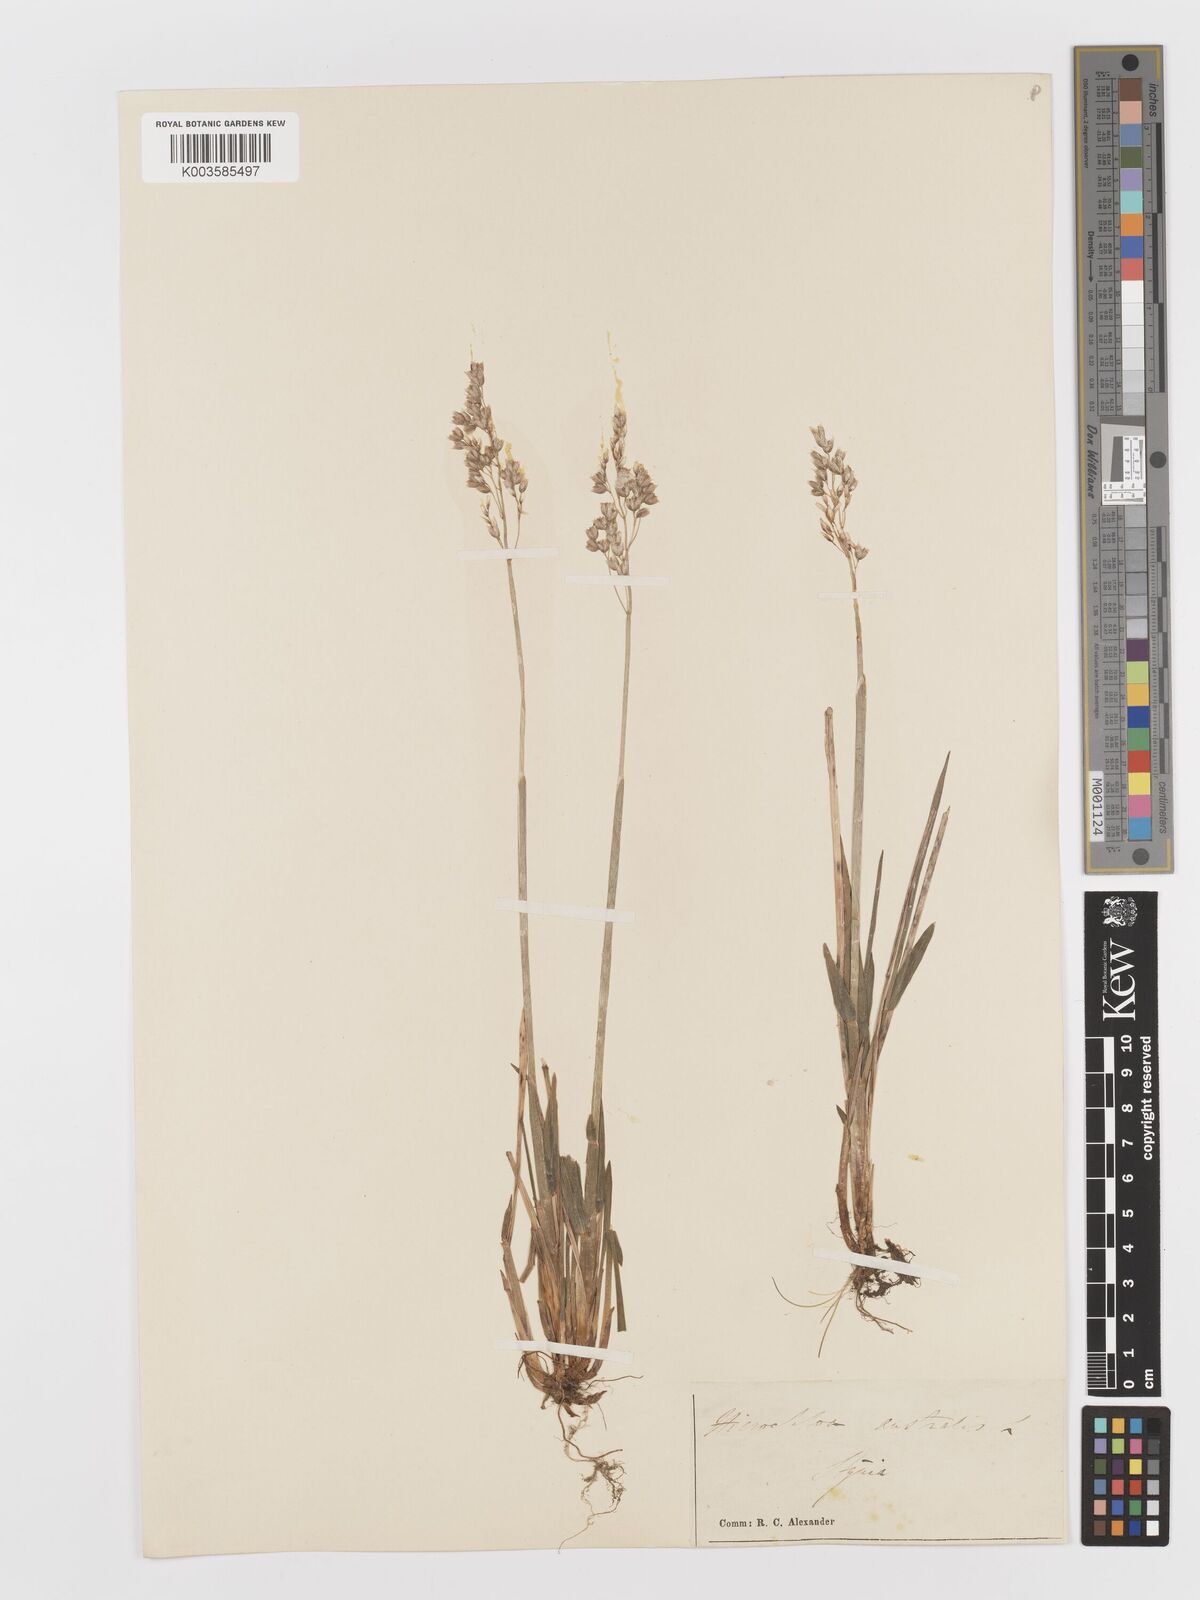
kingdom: Plantae
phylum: Tracheophyta
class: Liliopsida
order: Poales
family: Poaceae
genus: Anthoxanthum
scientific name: Anthoxanthum australe
